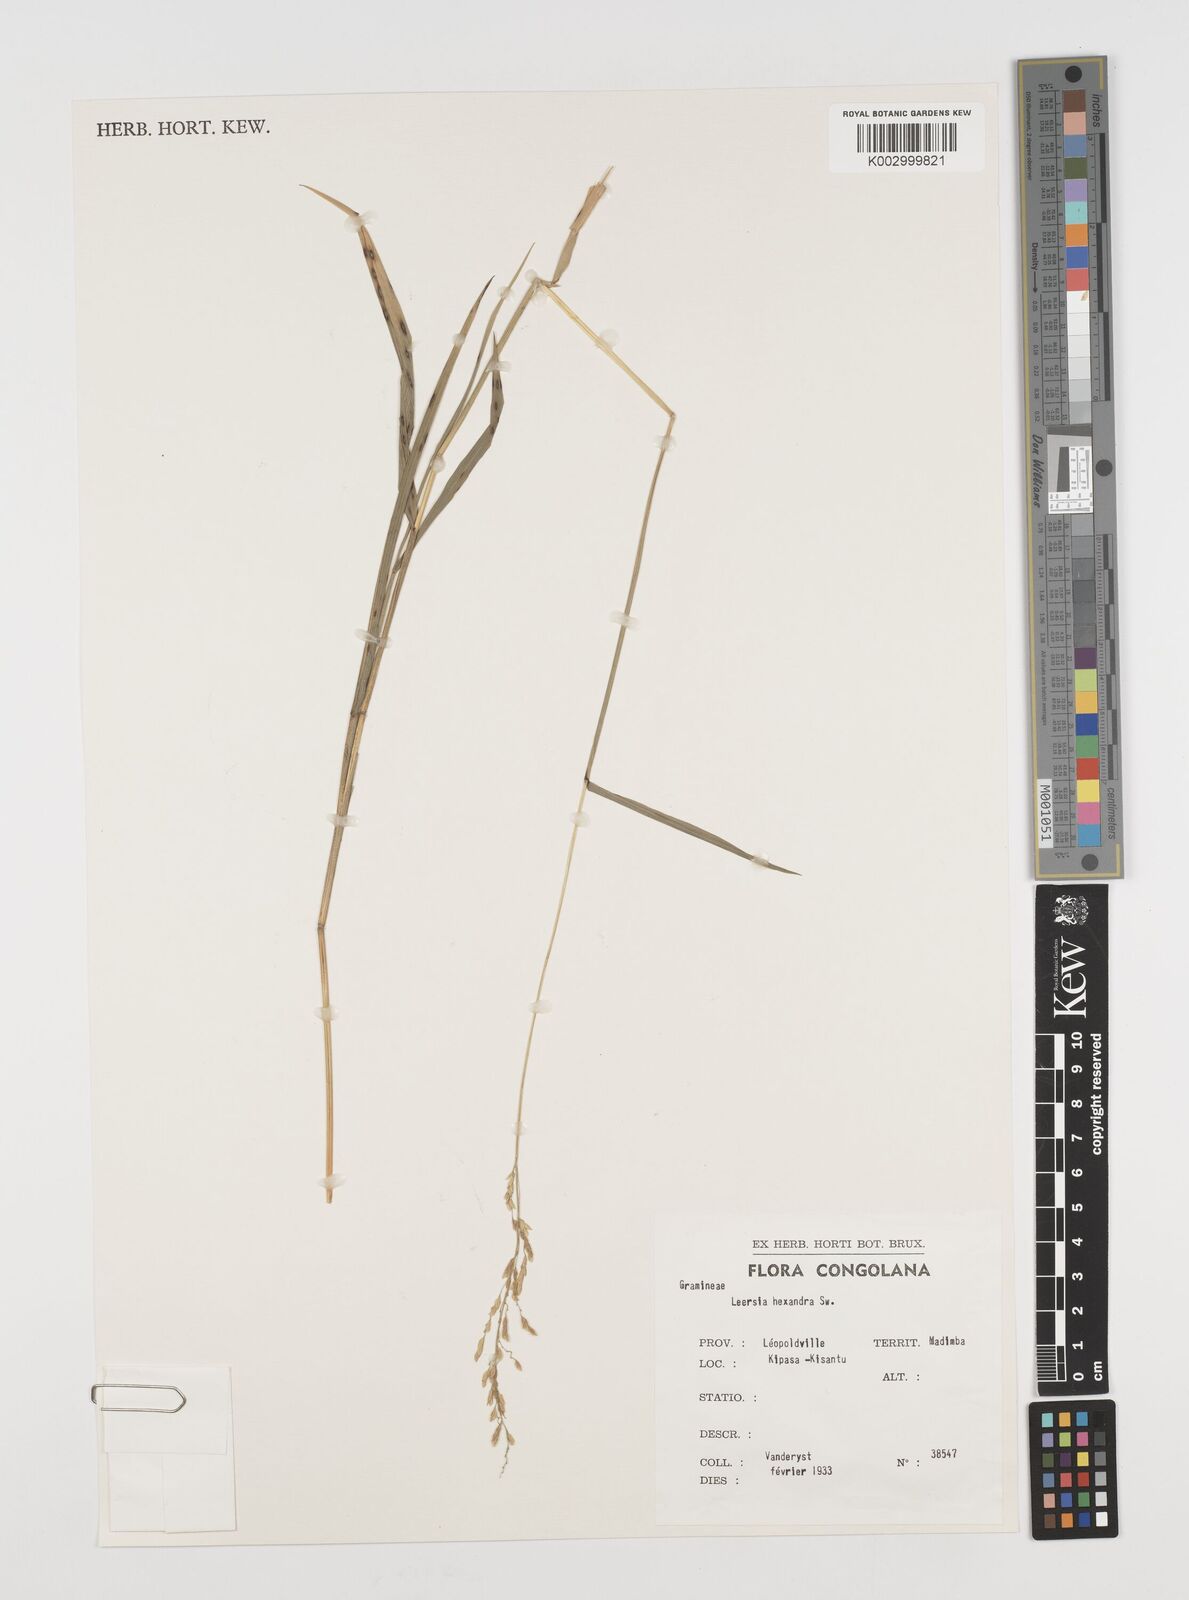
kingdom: Plantae
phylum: Tracheophyta
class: Liliopsida
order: Poales
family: Poaceae
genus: Leersia
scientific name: Leersia hexandra
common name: Southern cut grass
